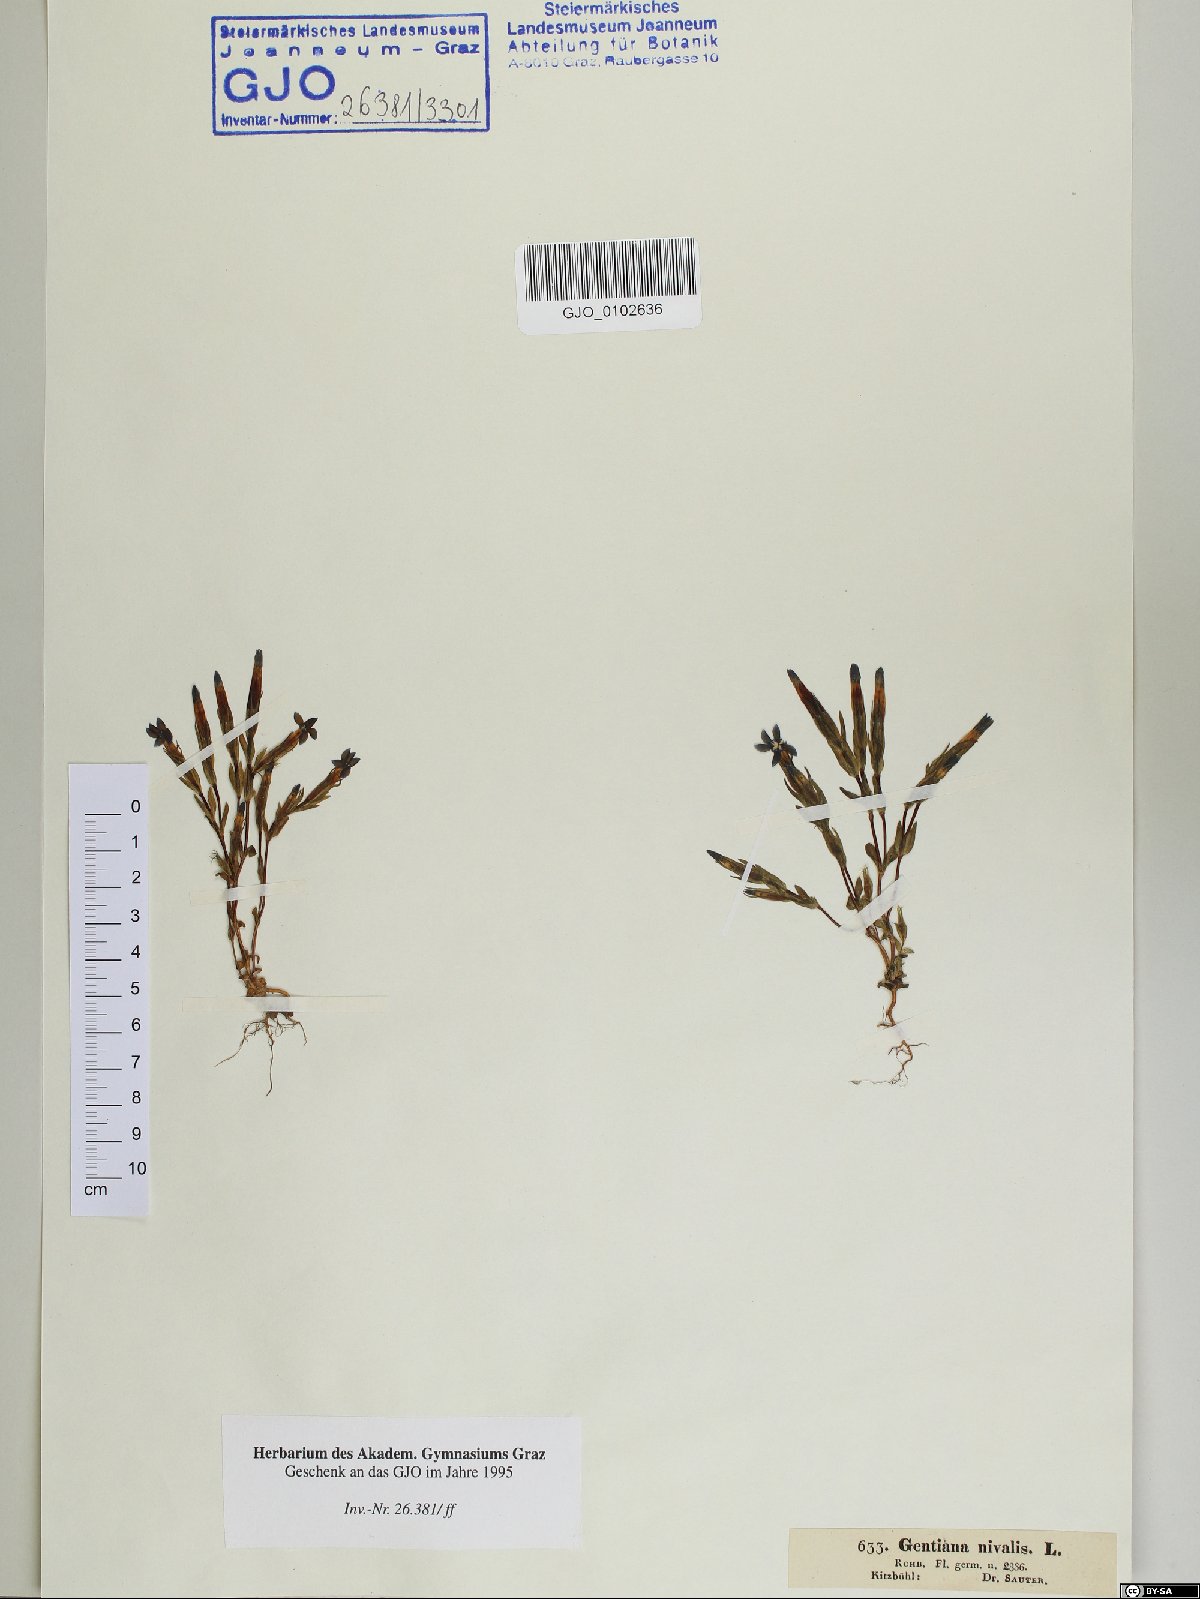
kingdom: Plantae
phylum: Tracheophyta
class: Magnoliopsida
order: Gentianales
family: Gentianaceae
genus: Gentiana
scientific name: Gentiana nivalis
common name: Alpine gentian
